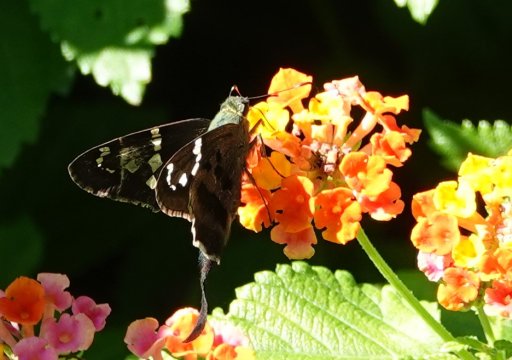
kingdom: Animalia
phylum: Arthropoda
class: Insecta
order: Lepidoptera
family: Hesperiidae
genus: Urbanus
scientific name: Urbanus proteus
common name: Long-tailed Skipper
